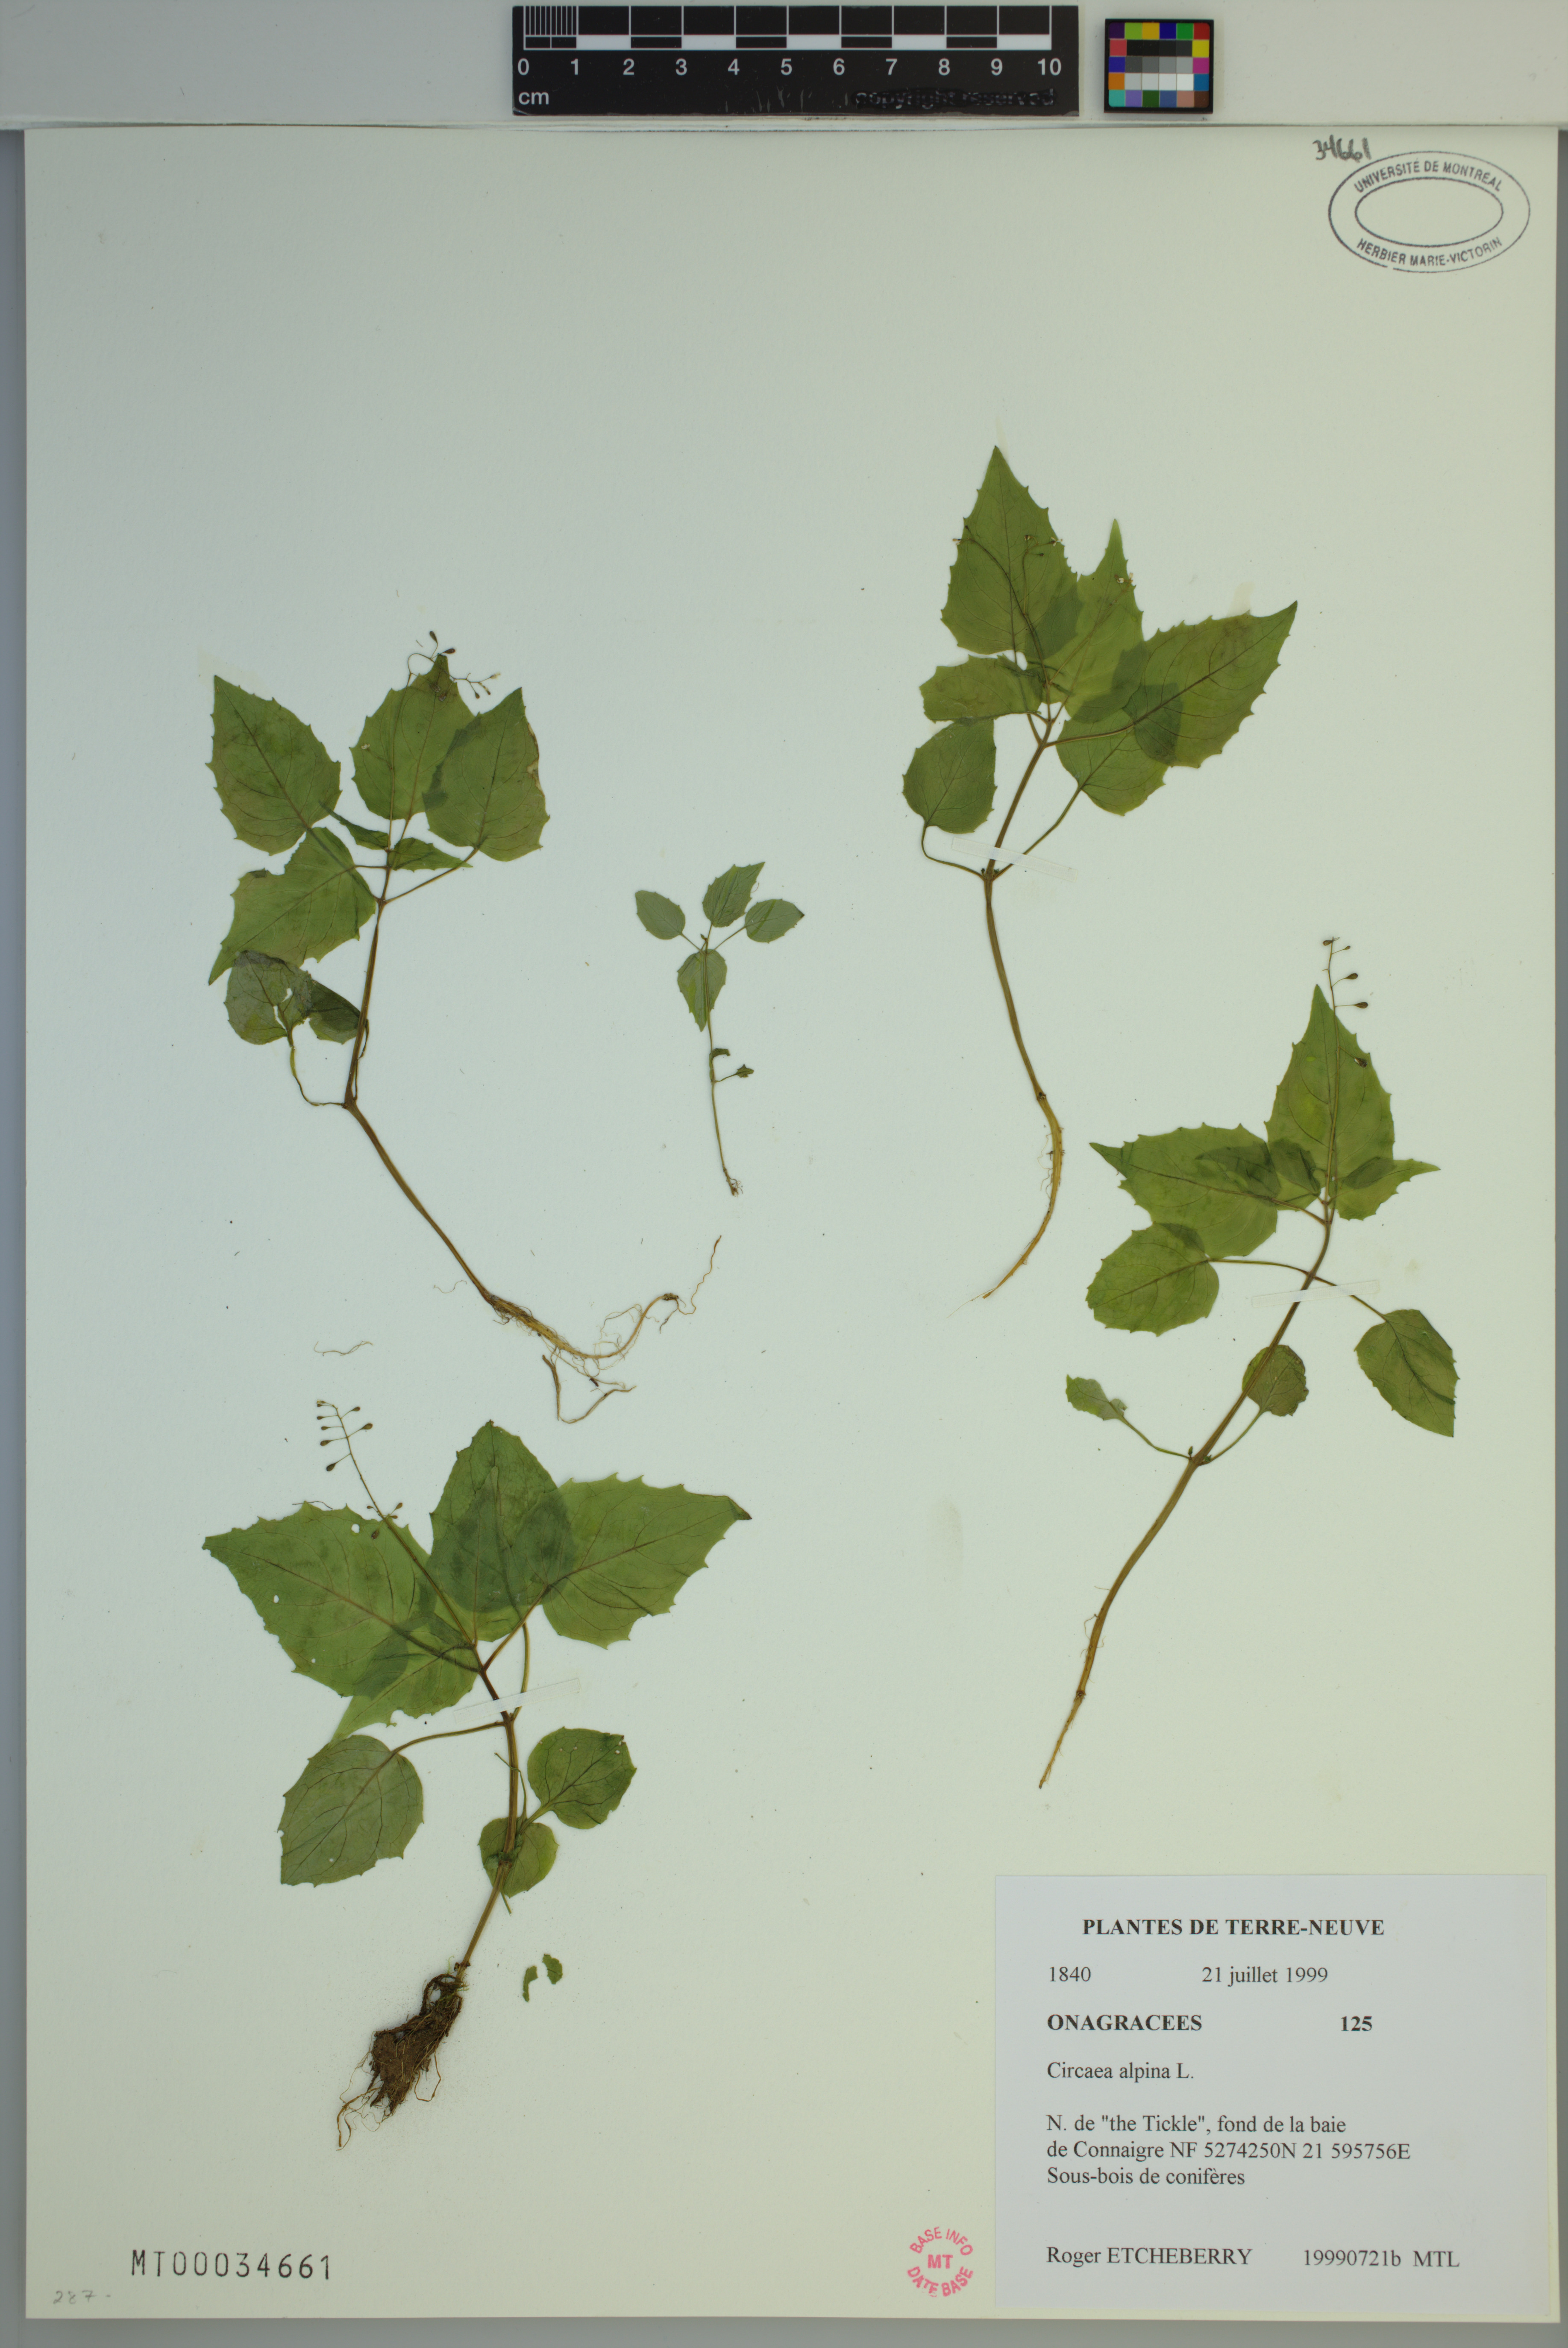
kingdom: Plantae
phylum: Tracheophyta
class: Magnoliopsida
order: Myrtales
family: Onagraceae
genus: Circaea
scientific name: Circaea alpina
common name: Alpine enchanter's-nightshade
